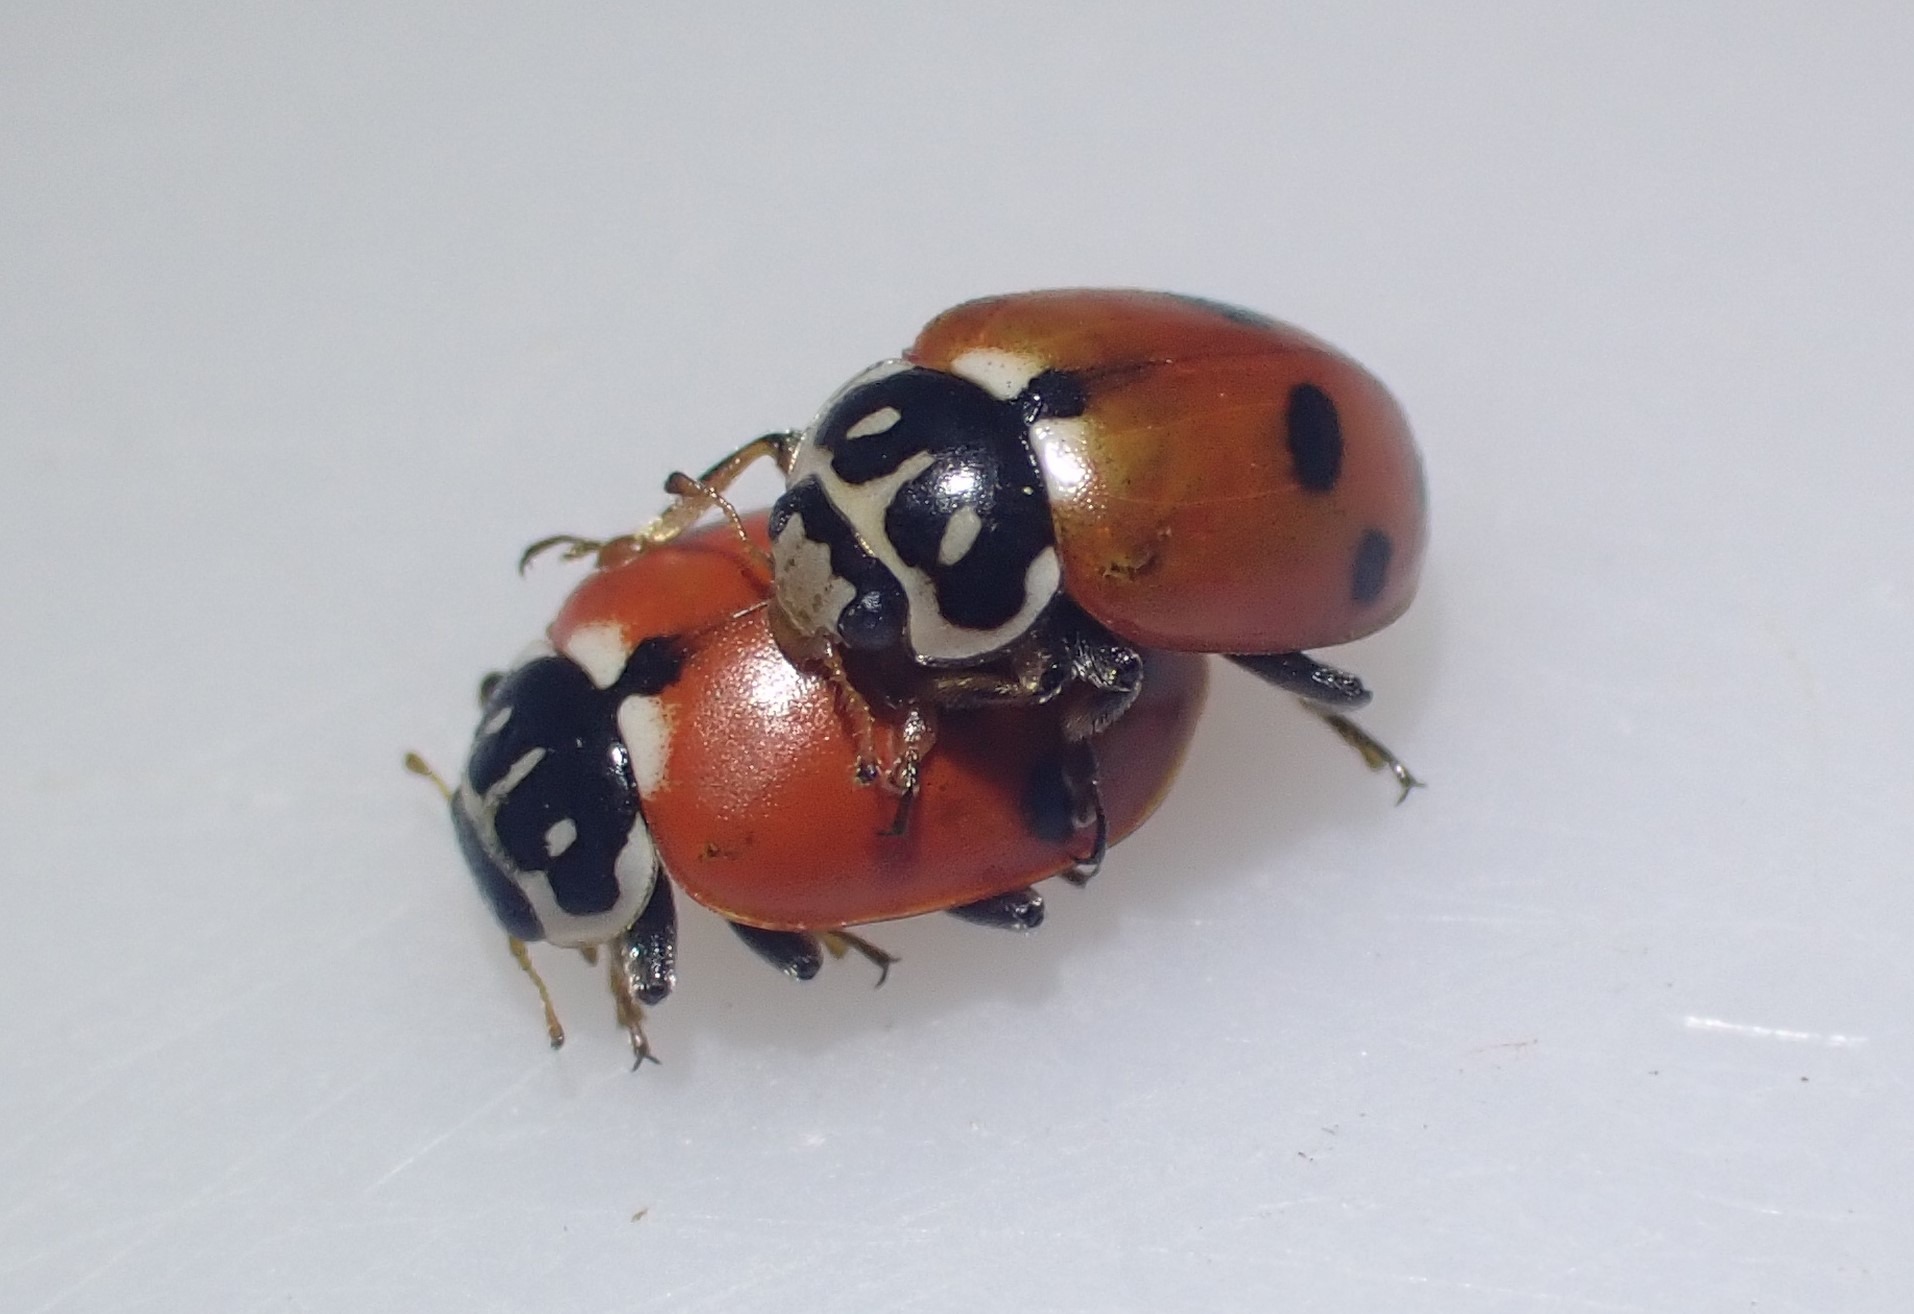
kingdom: Animalia
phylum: Arthropoda
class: Insecta
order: Coleoptera
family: Coccinellidae
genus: Hippodamia
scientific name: Hippodamia variegata
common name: Adonis' mariehøne
